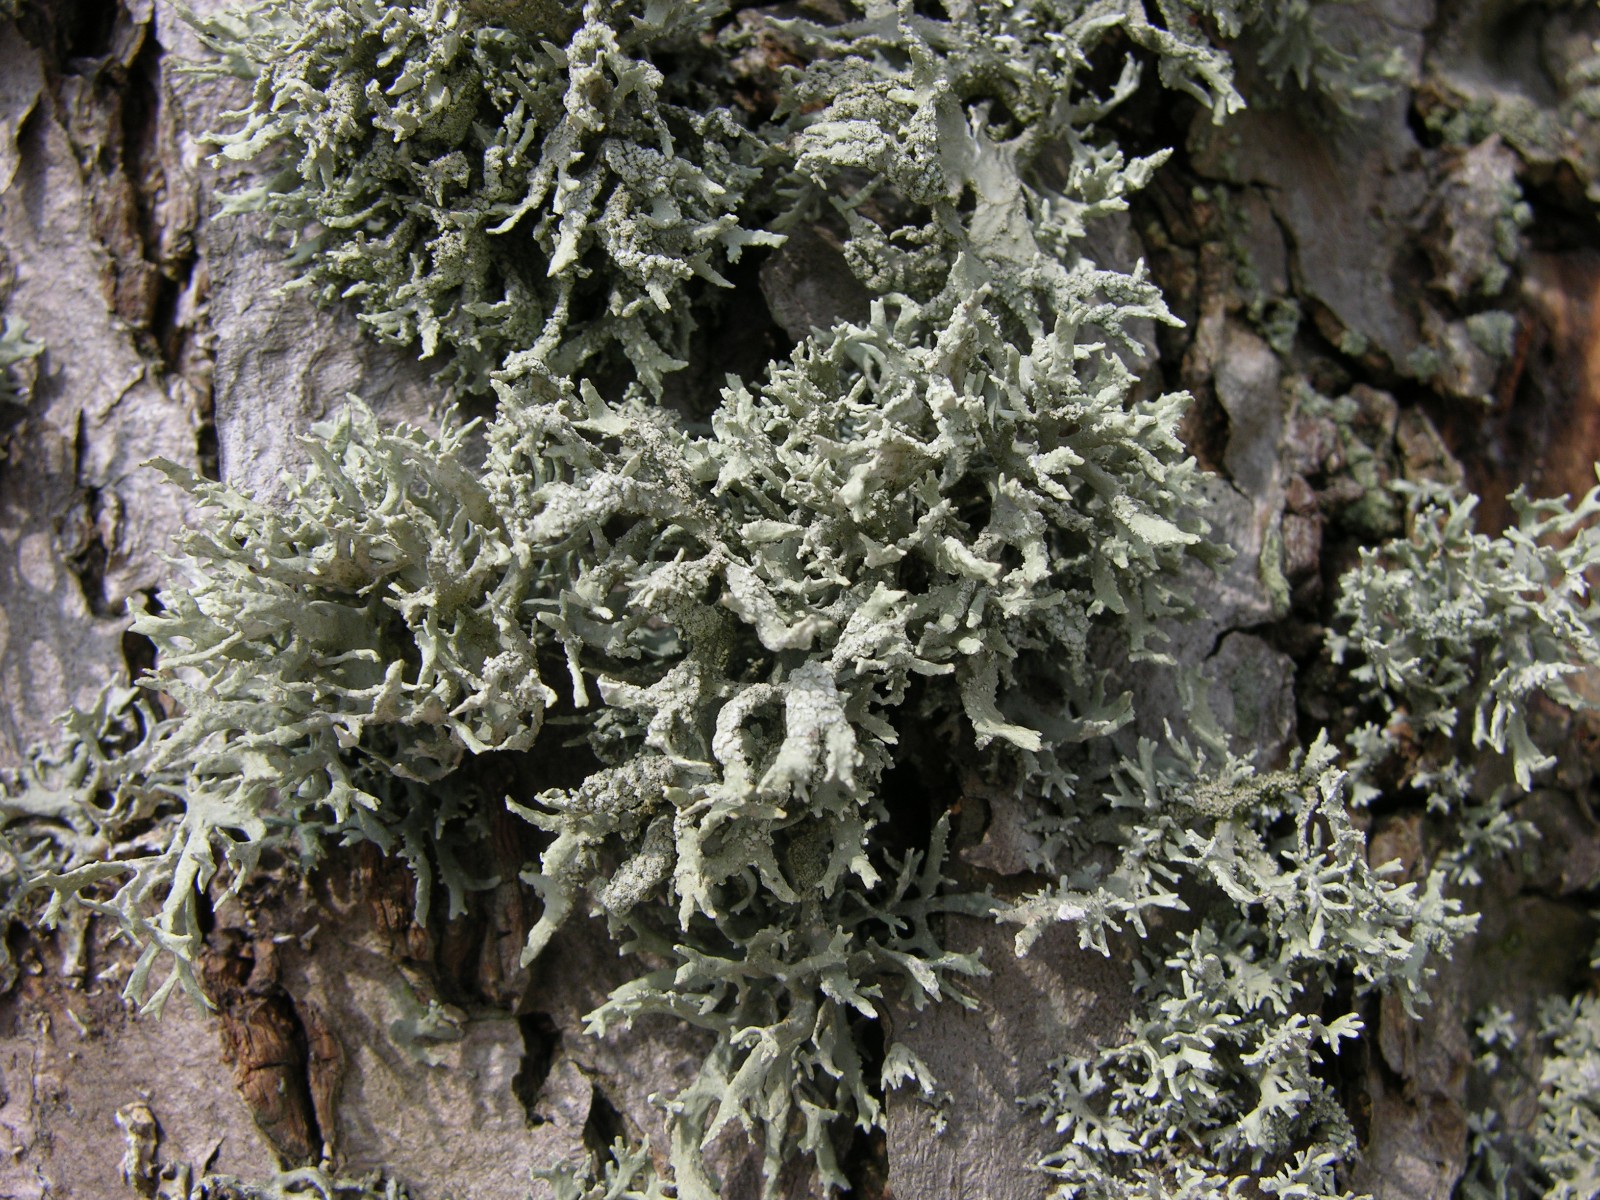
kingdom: Fungi
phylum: Ascomycota
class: Lecanoromycetes
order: Lecanorales
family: Parmeliaceae
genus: Evernia
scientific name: Evernia prunastri
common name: almindelig slåenlav
